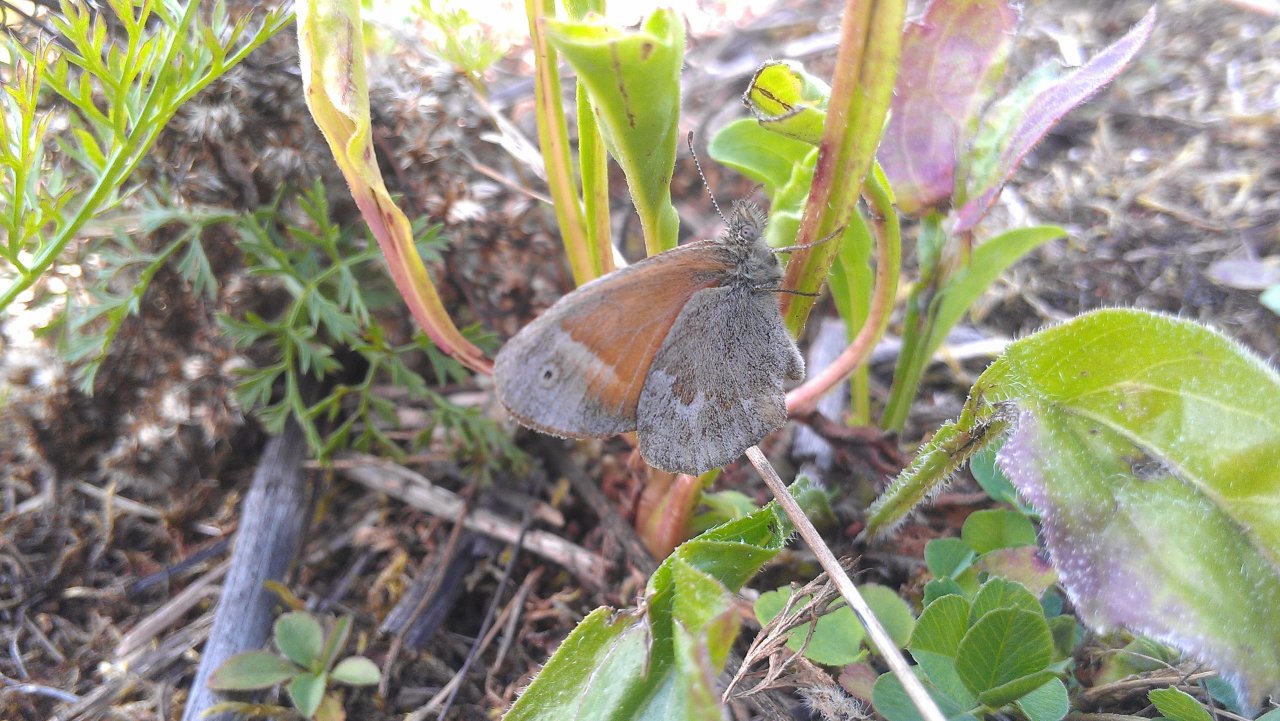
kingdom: Animalia
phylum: Arthropoda
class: Insecta
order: Lepidoptera
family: Nymphalidae
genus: Coenonympha
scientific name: Coenonympha tullia
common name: Large Heath
